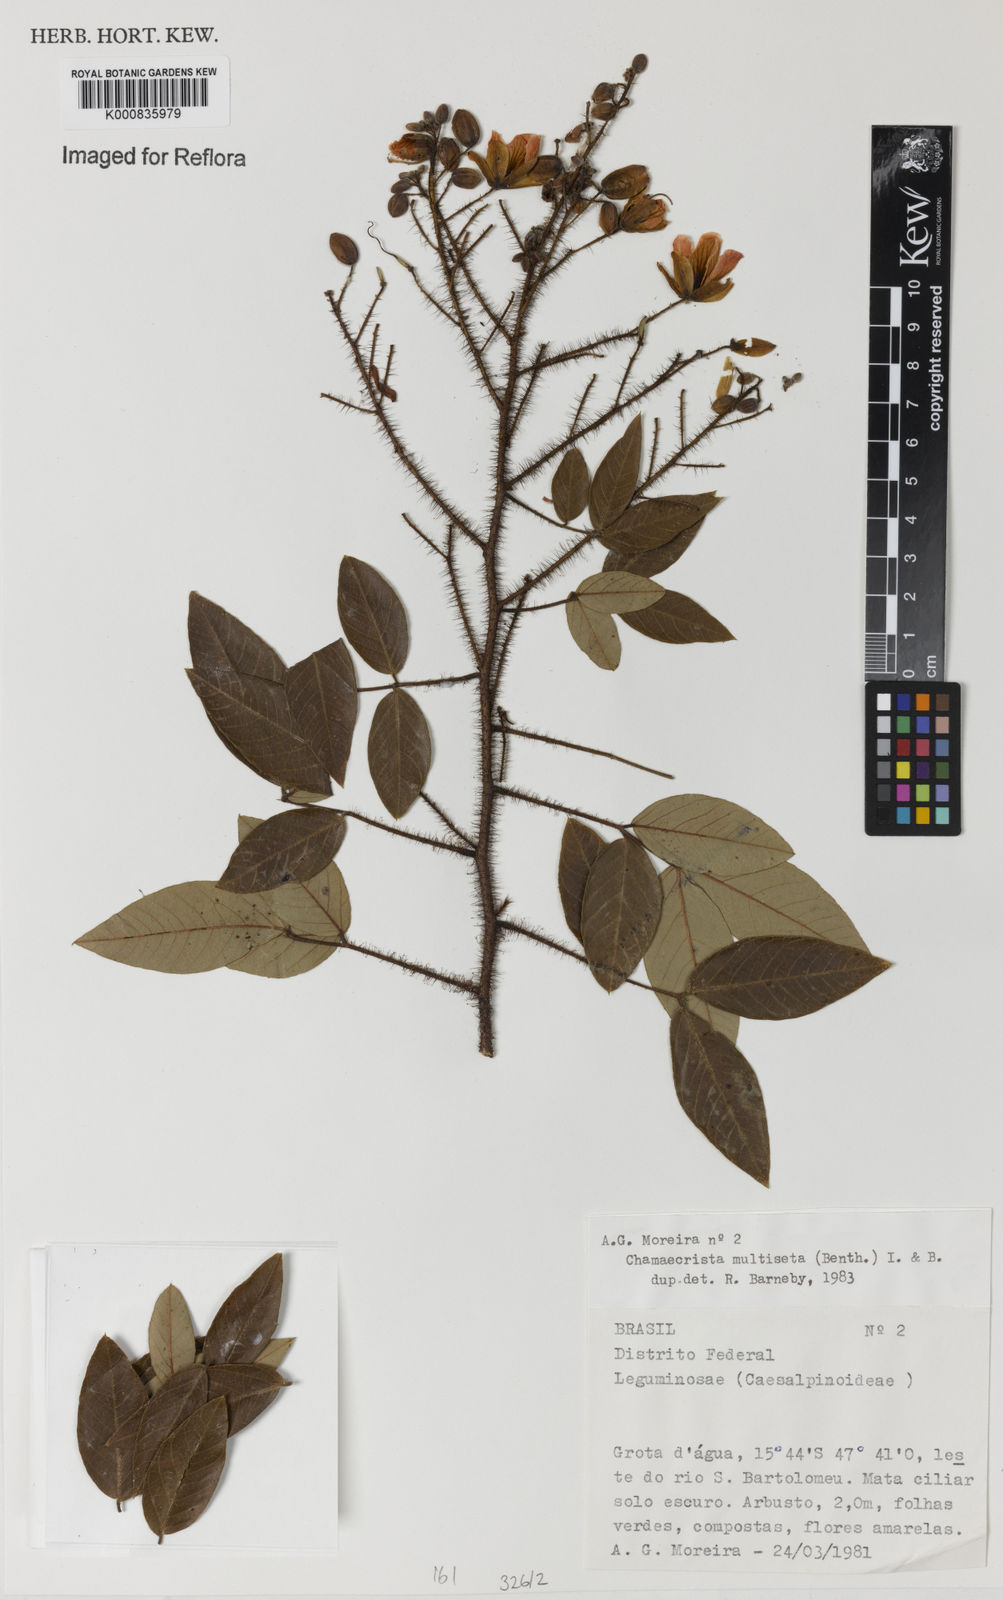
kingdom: Plantae
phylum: Tracheophyta
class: Magnoliopsida
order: Fabales
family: Fabaceae
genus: Chamaecrista
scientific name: Chamaecrista multiseta
